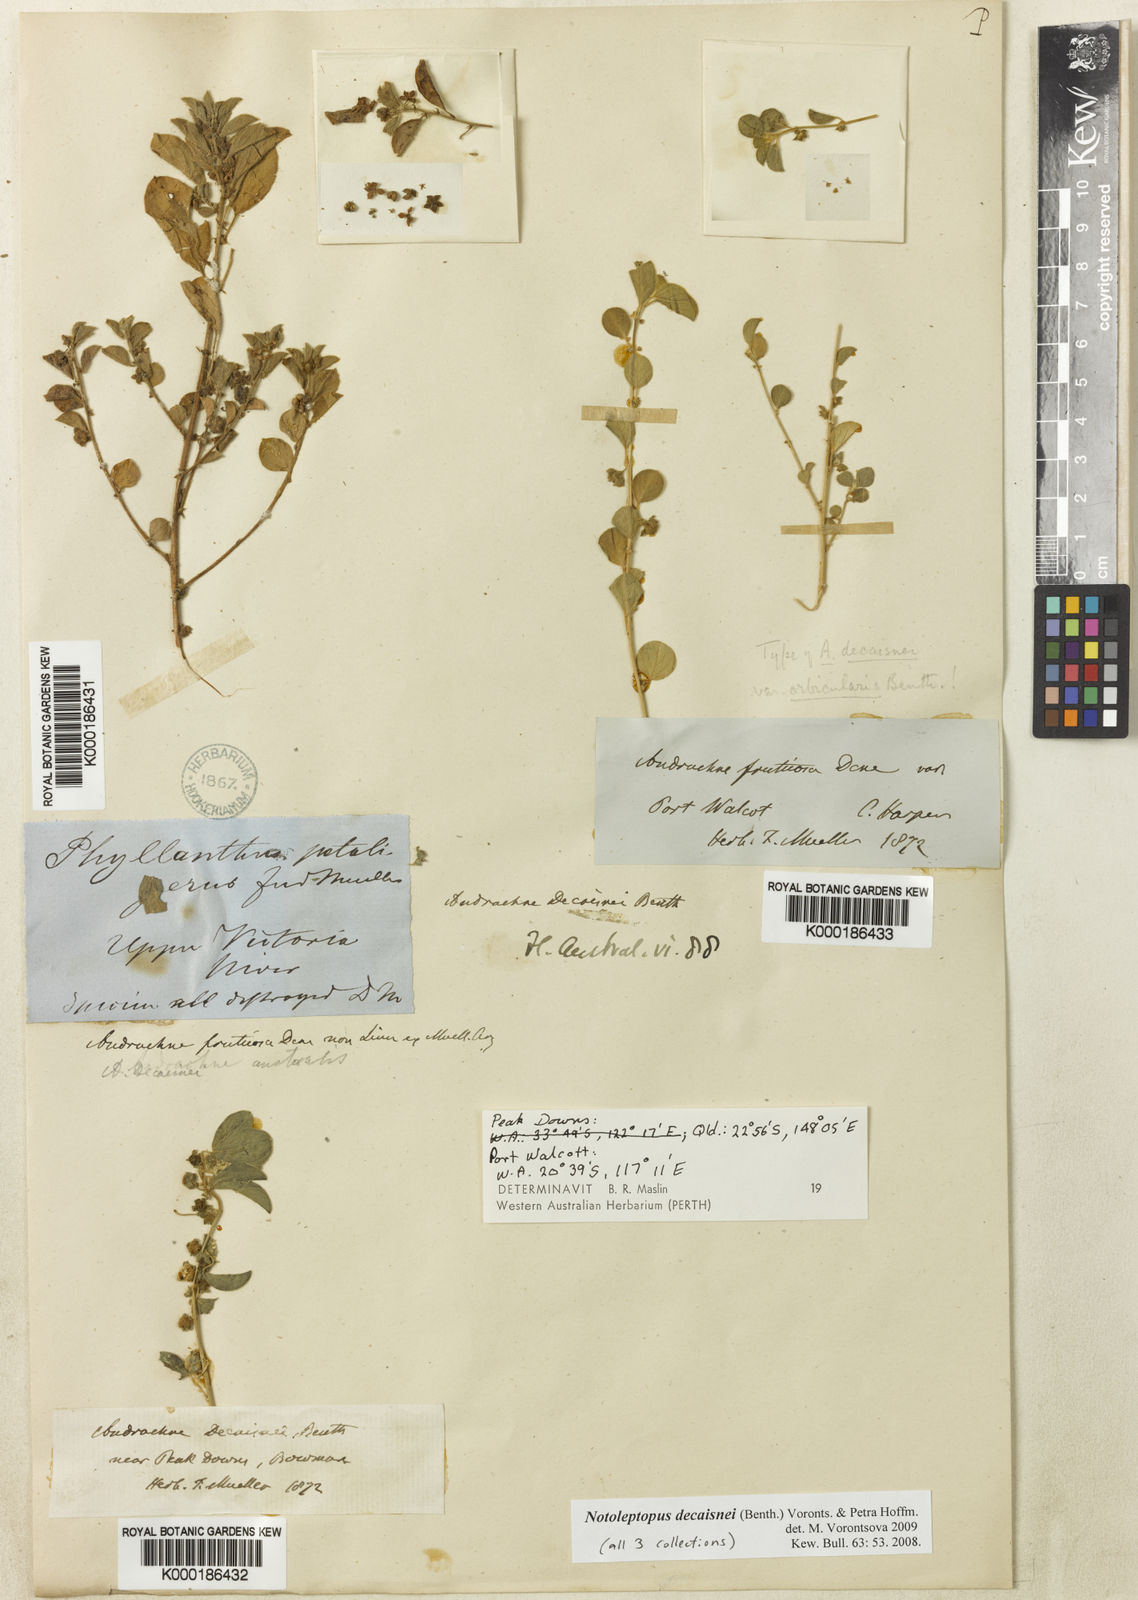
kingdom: Plantae
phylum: Tracheophyta
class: Magnoliopsida
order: Malpighiales
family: Phyllanthaceae
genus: Notoleptopus
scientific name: Notoleptopus decaisnei
